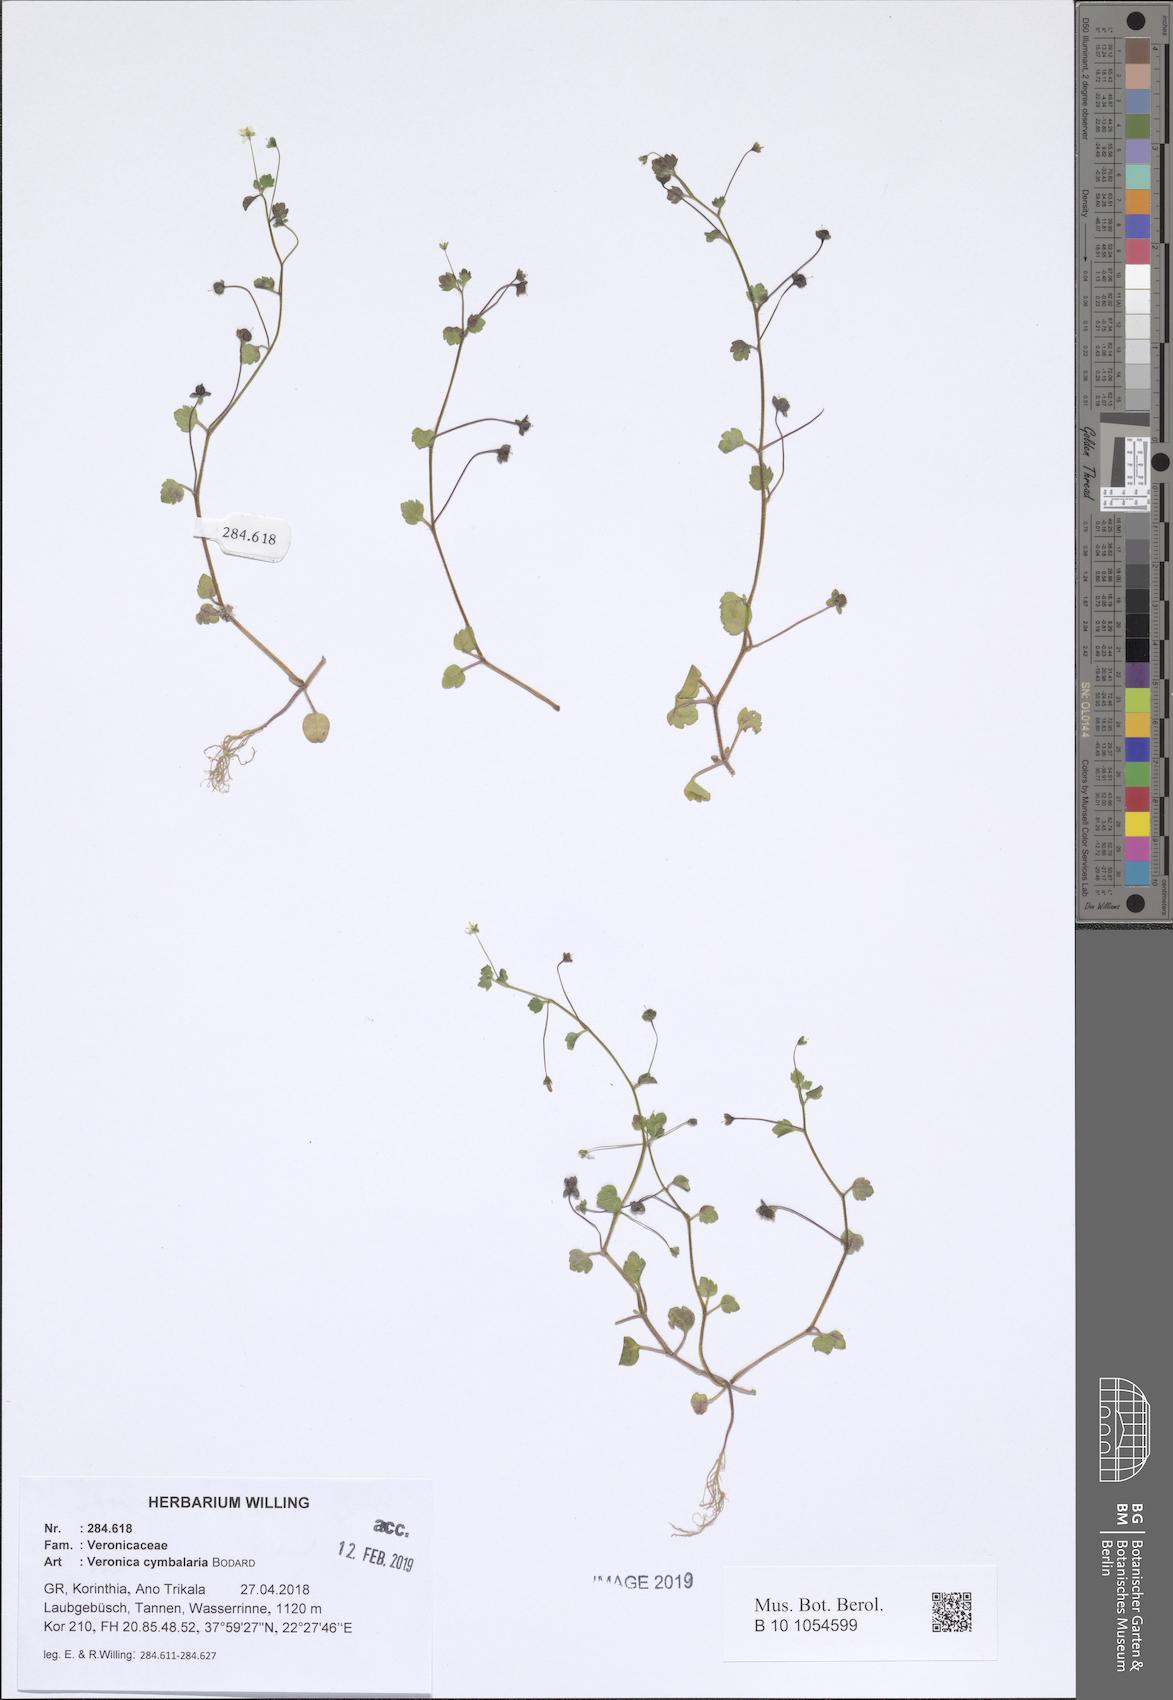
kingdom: Plantae
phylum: Tracheophyta
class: Magnoliopsida
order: Lamiales
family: Plantaginaceae
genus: Veronica
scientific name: Veronica cymbalaria
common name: Pale speedwell
